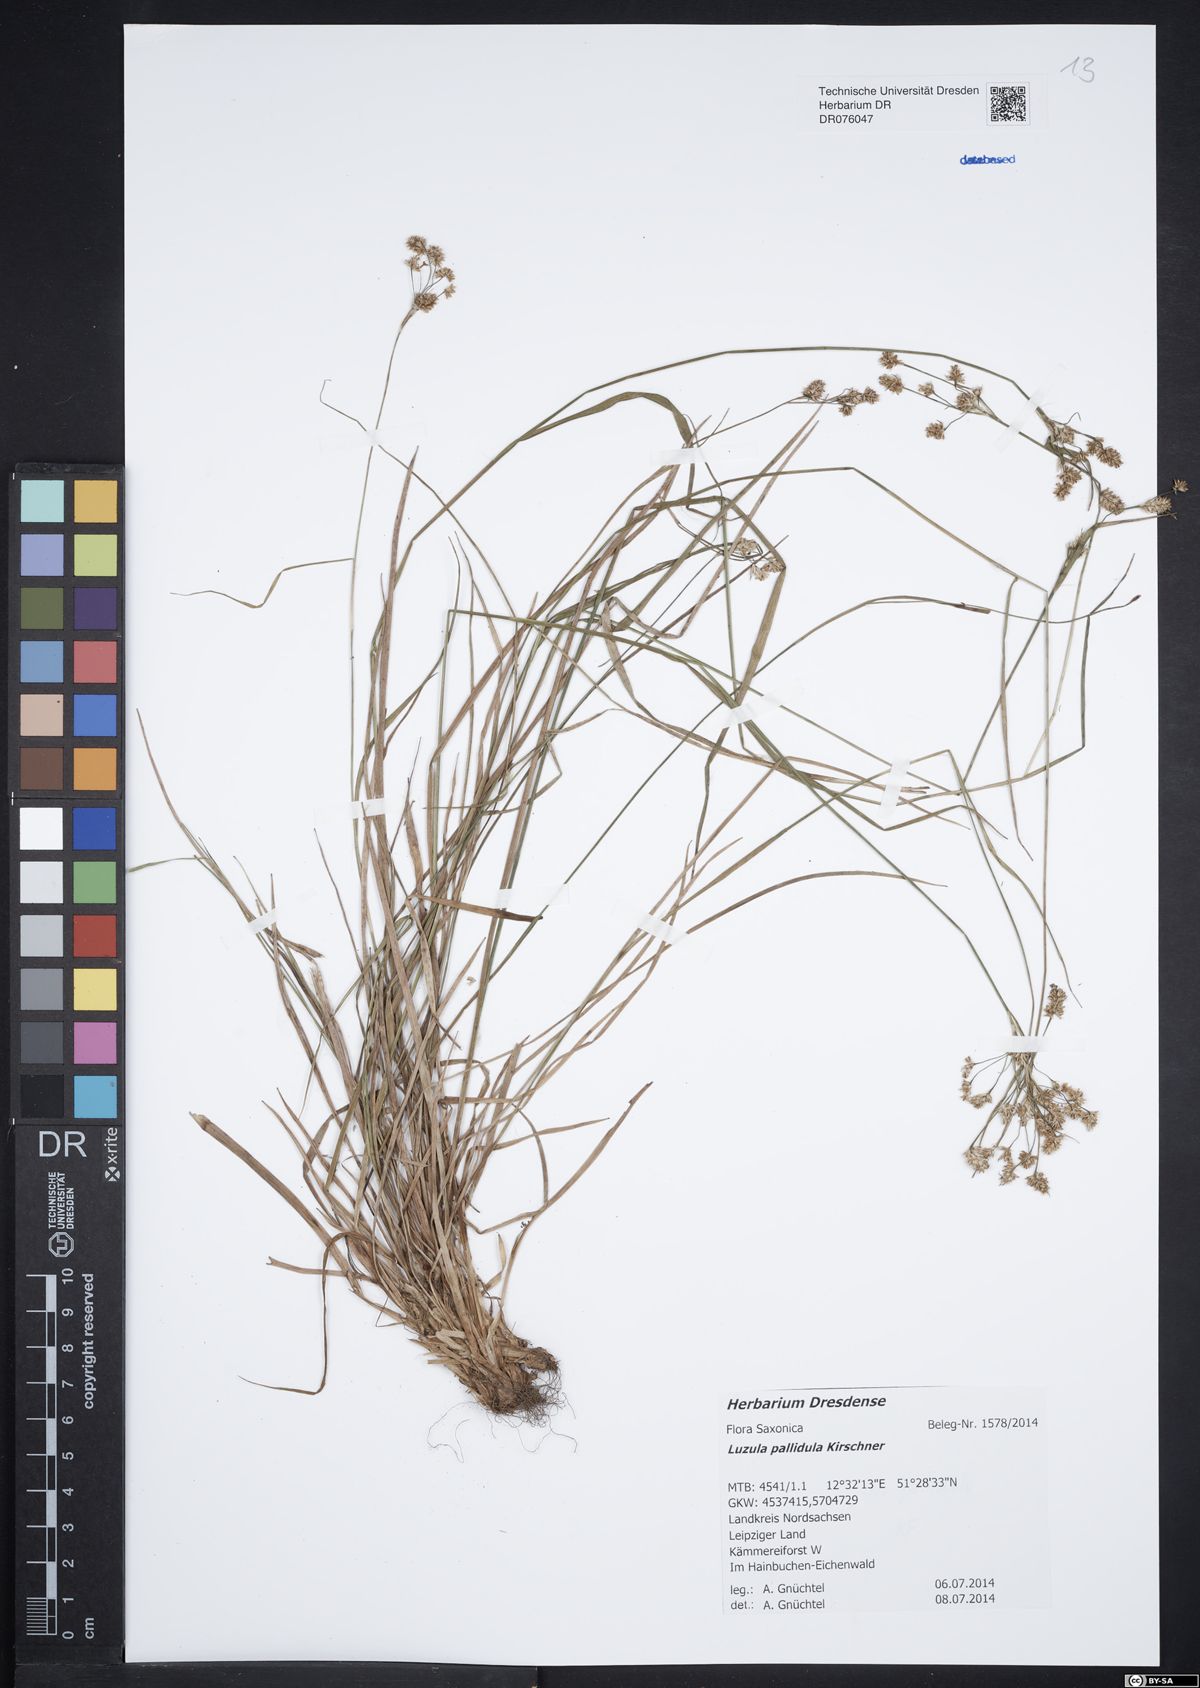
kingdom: Plantae
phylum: Tracheophyta
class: Liliopsida
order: Poales
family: Juncaceae
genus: Luzula
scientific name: Luzula pallescens
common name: Fen wood-rush
